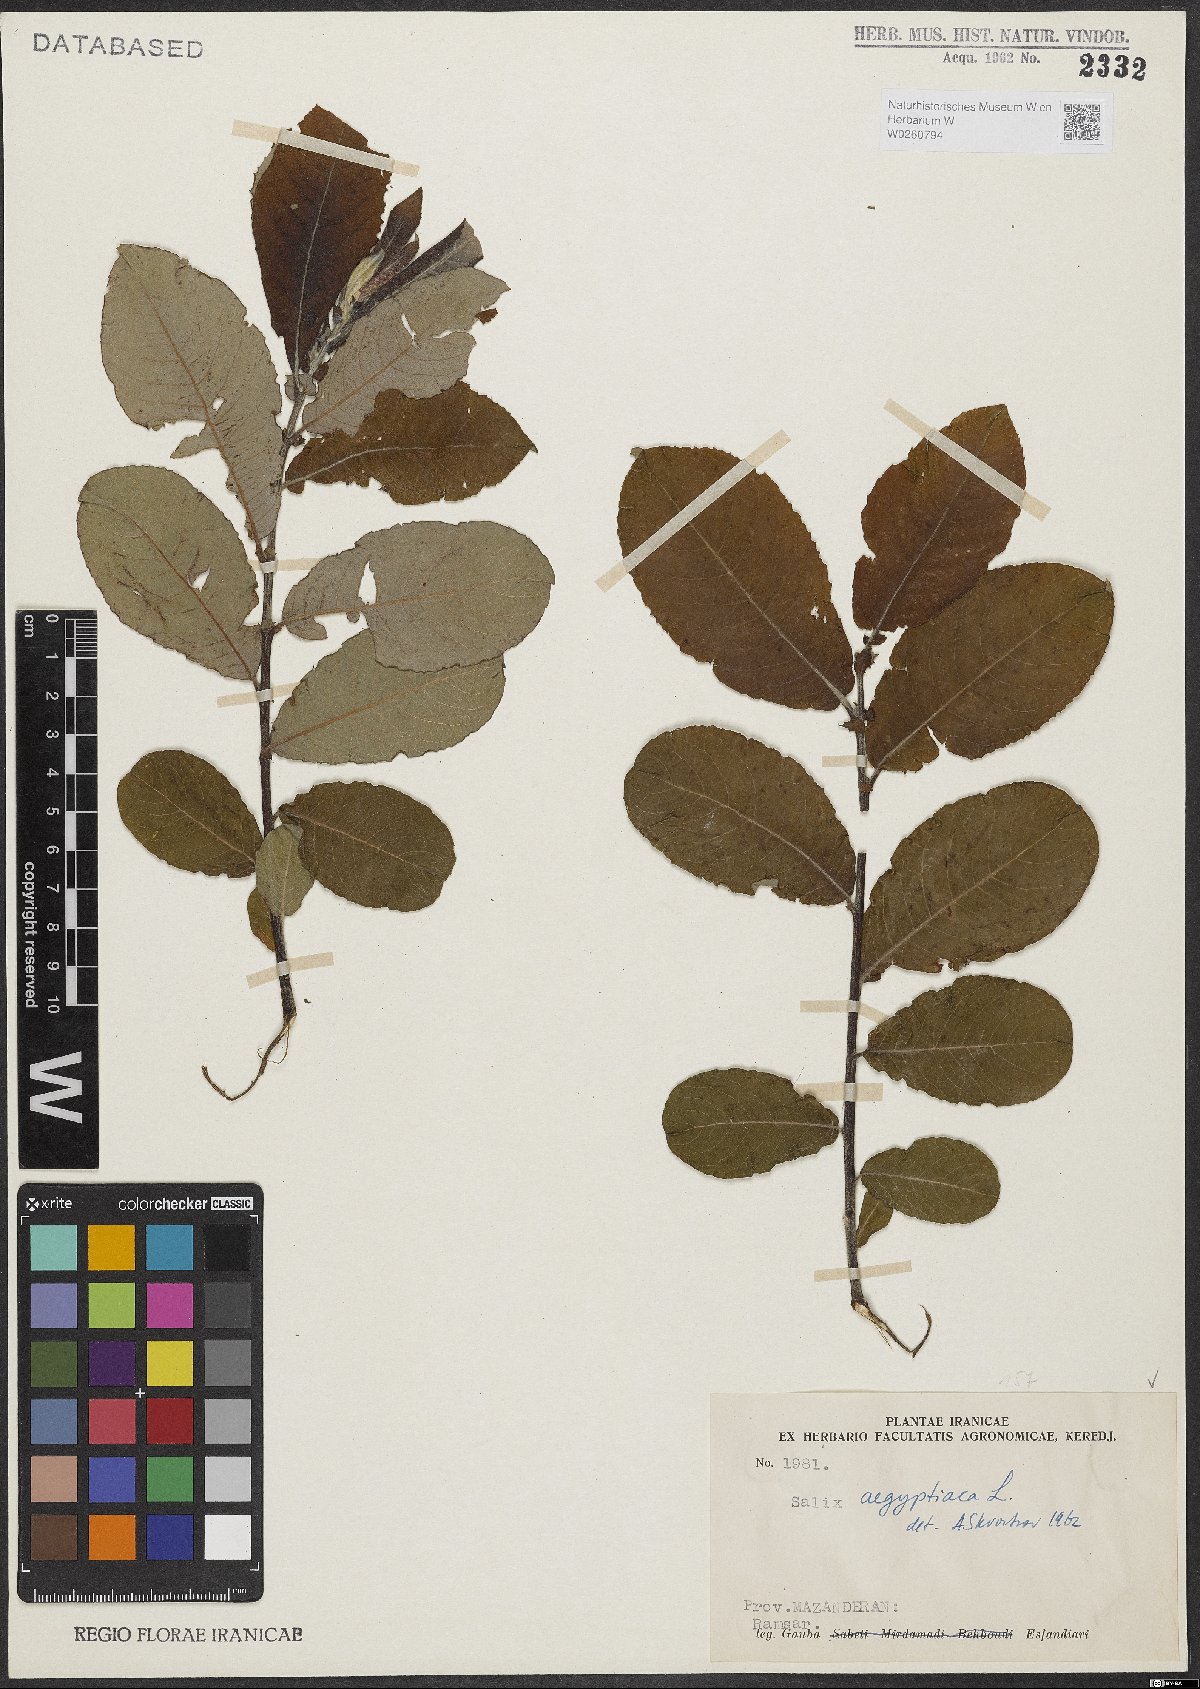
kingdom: Plantae
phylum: Tracheophyta
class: Magnoliopsida
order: Malpighiales
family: Salicaceae
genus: Salix
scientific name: Salix aegyptiaca
